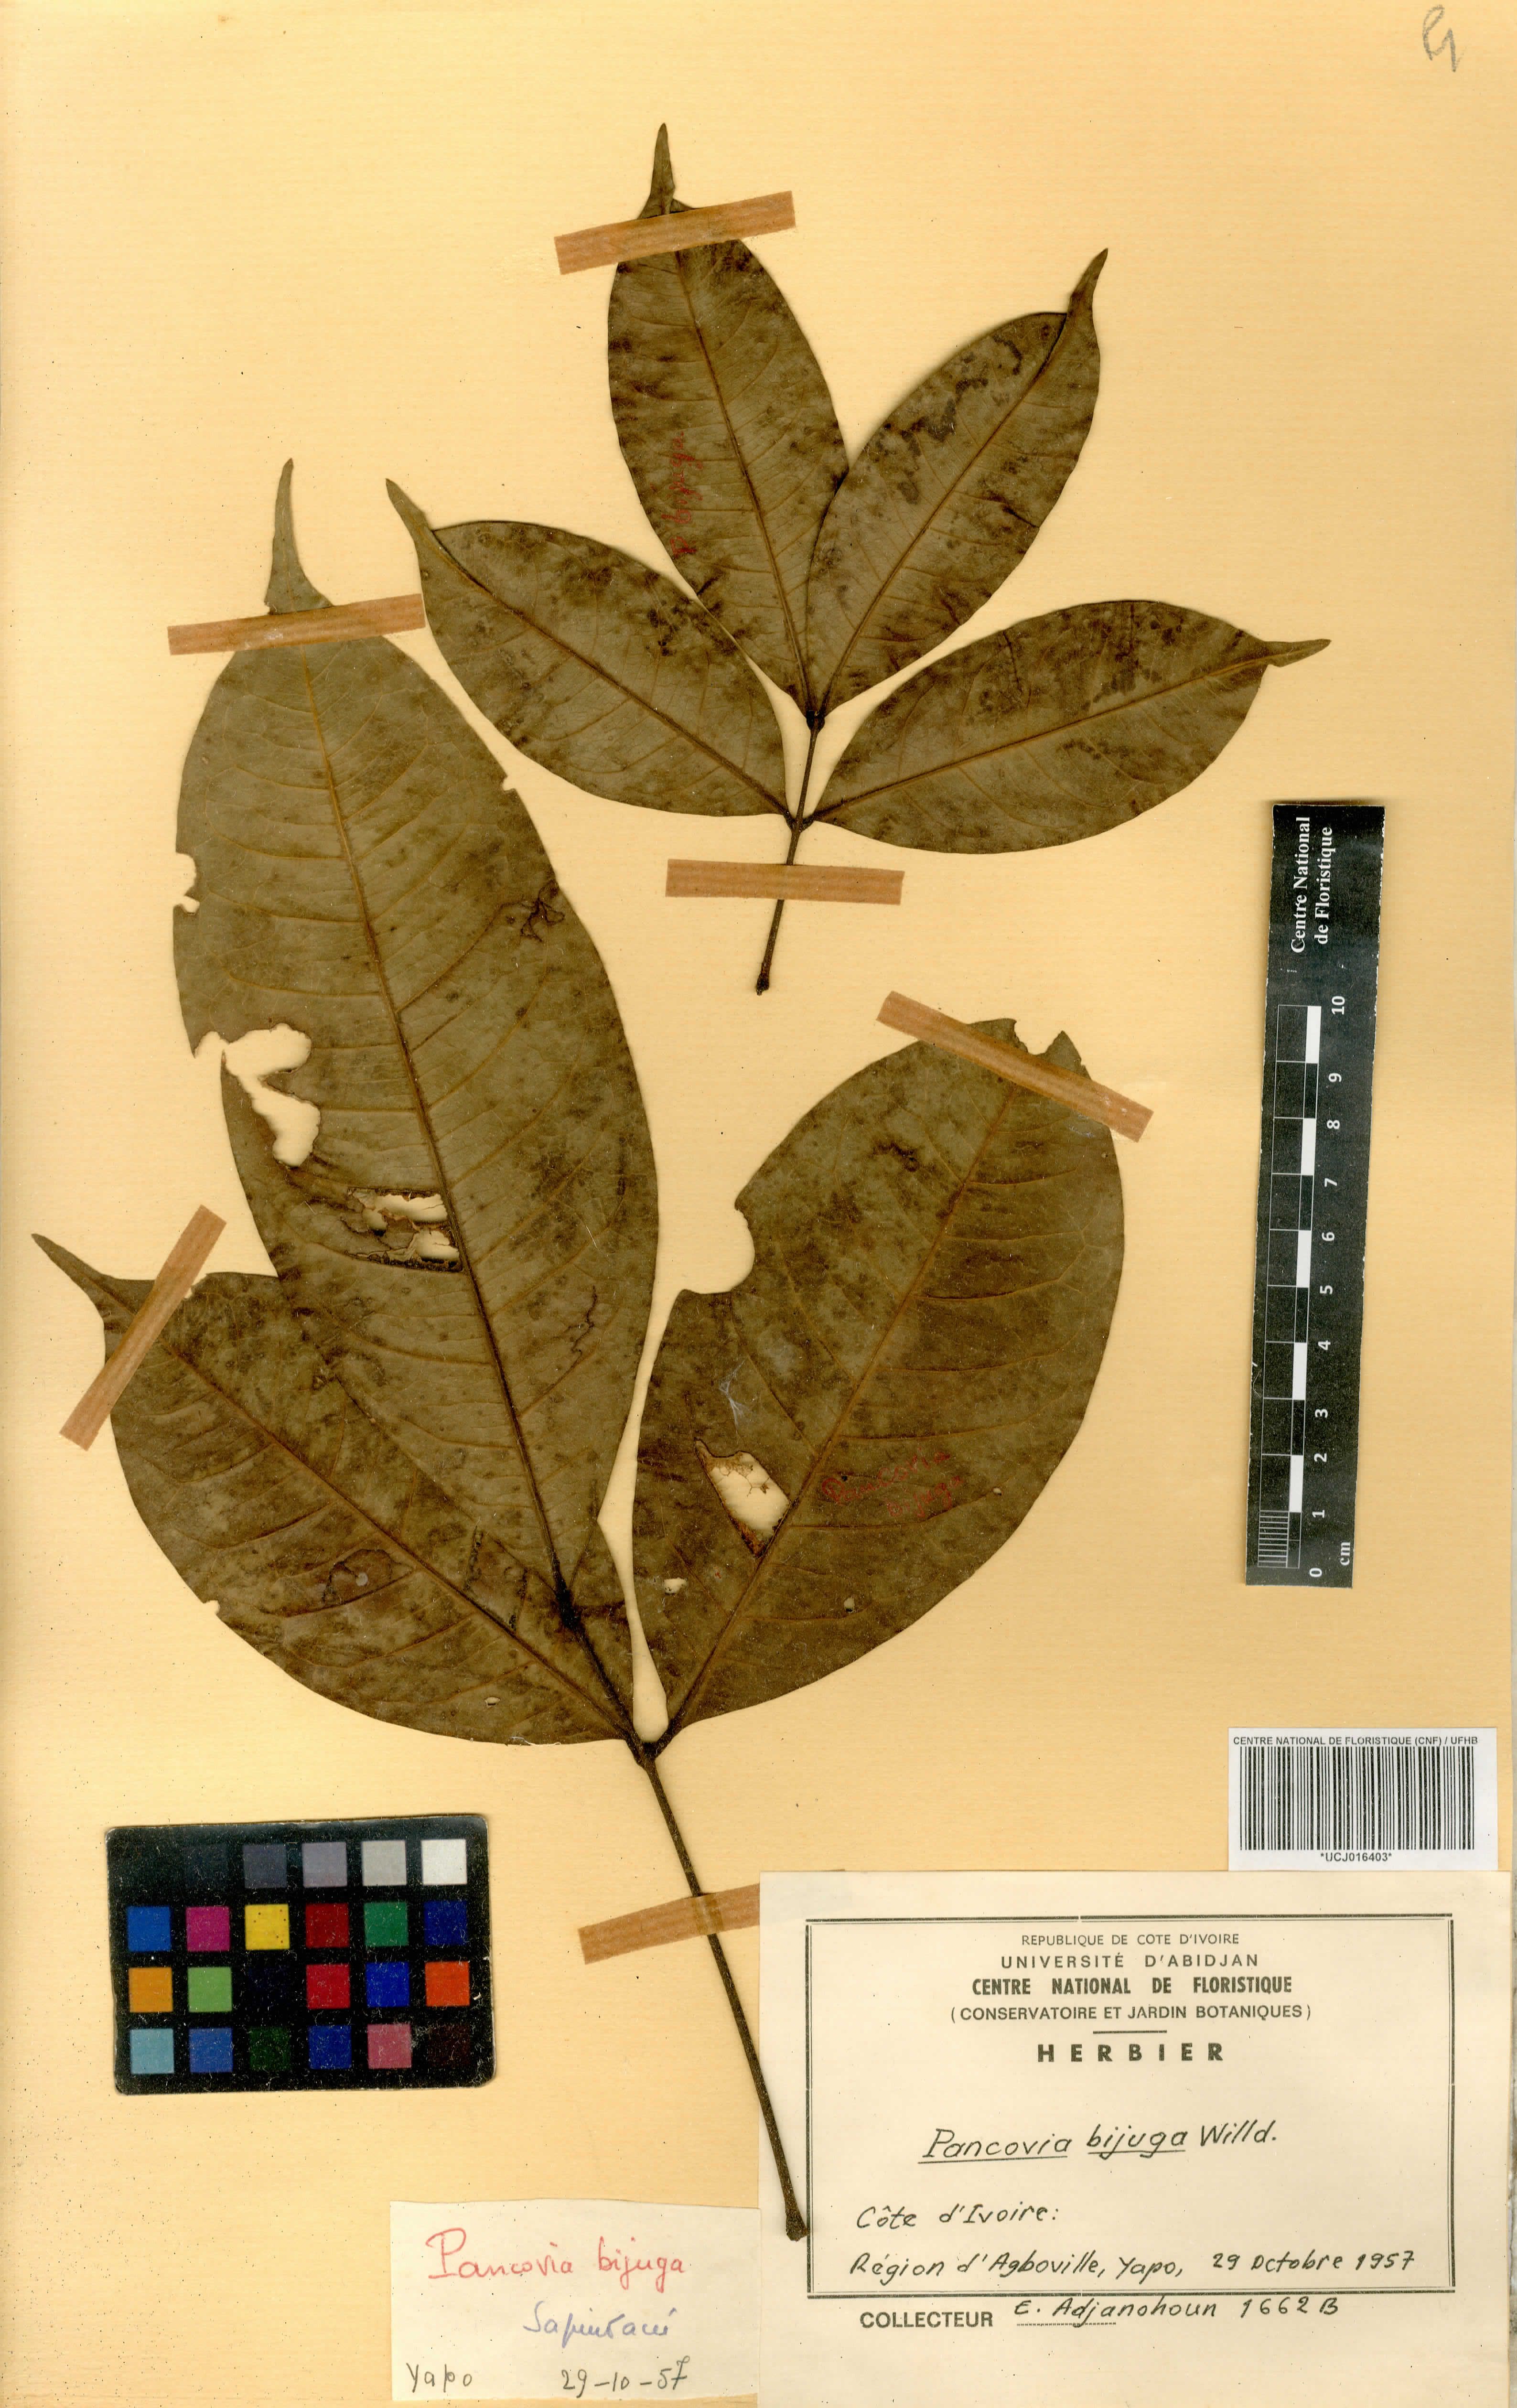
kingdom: Plantae
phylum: Tracheophyta
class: Magnoliopsida
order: Sapindales
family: Sapindaceae
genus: Pancovia
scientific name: Pancovia bijuga
